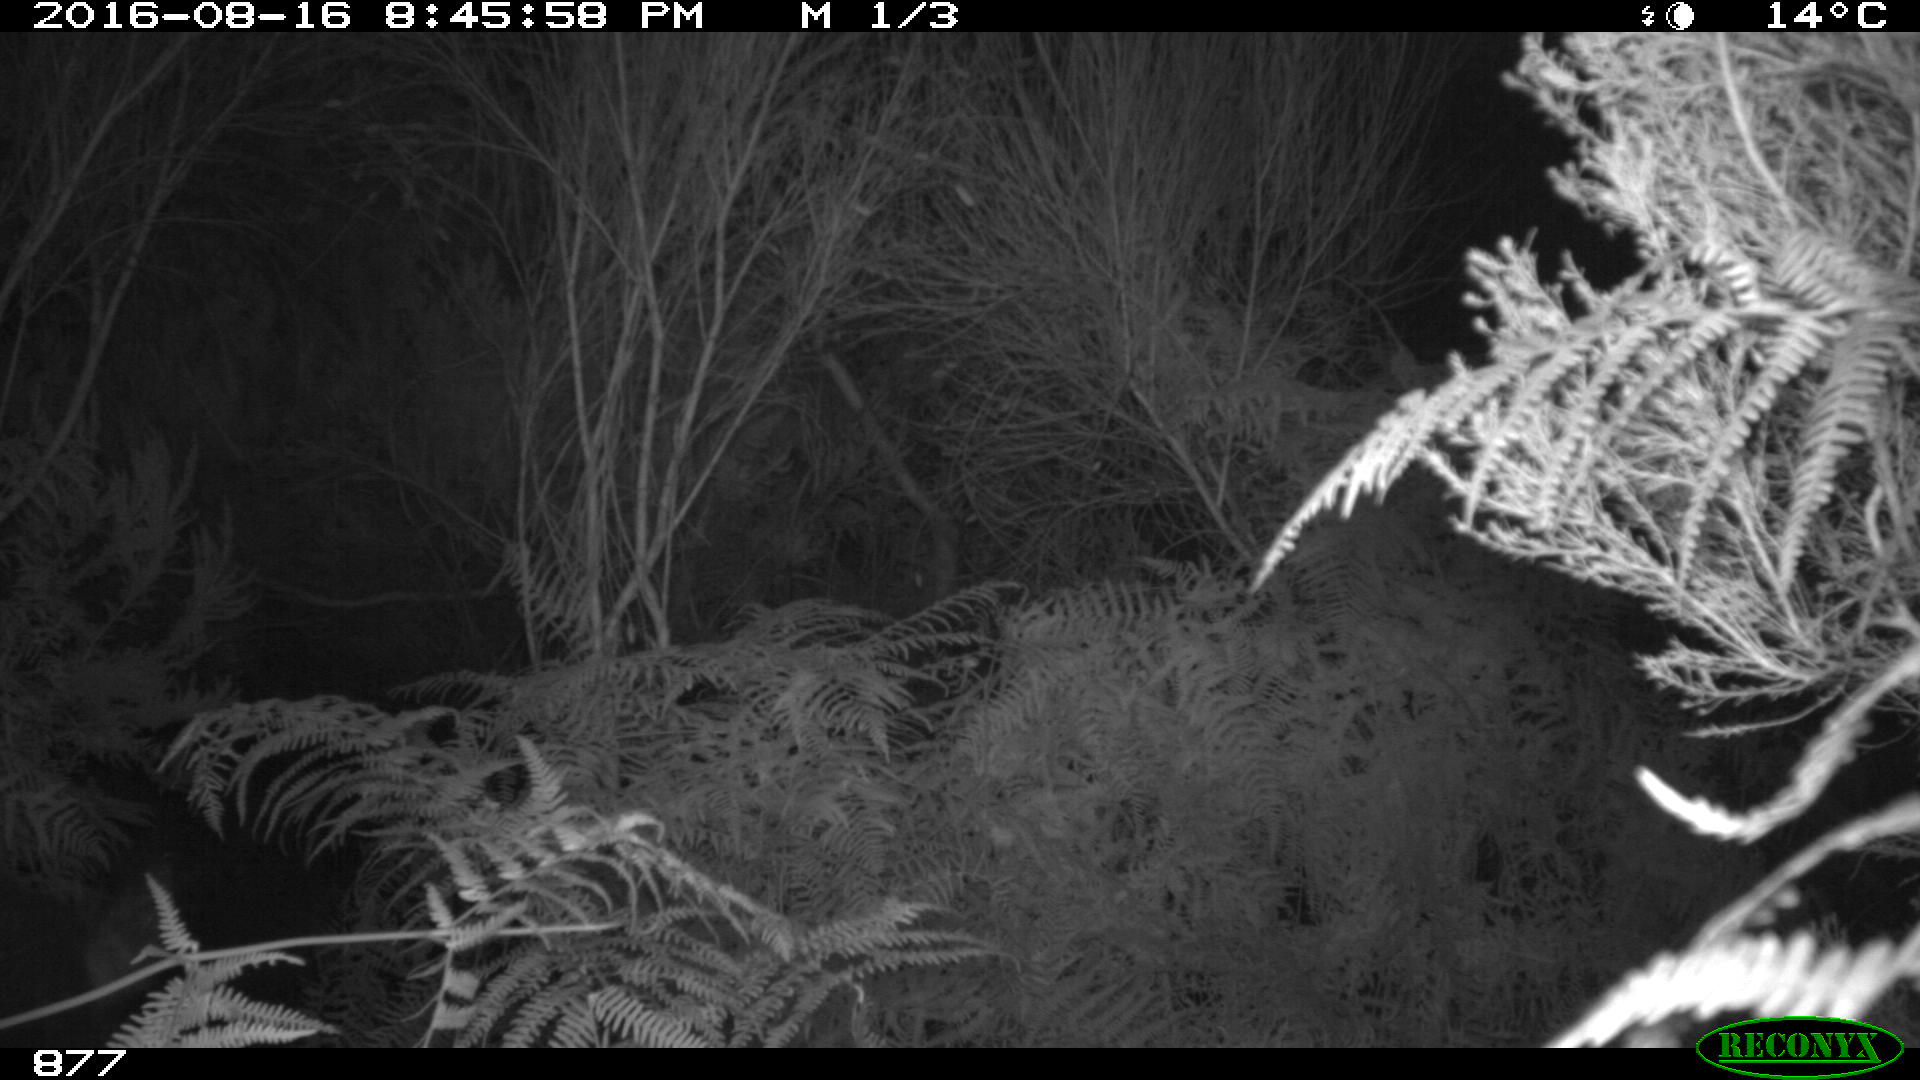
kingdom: Animalia
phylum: Chordata
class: Mammalia
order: Artiodactyla
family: Suidae
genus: Sus
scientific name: Sus scrofa
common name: Wild boar
